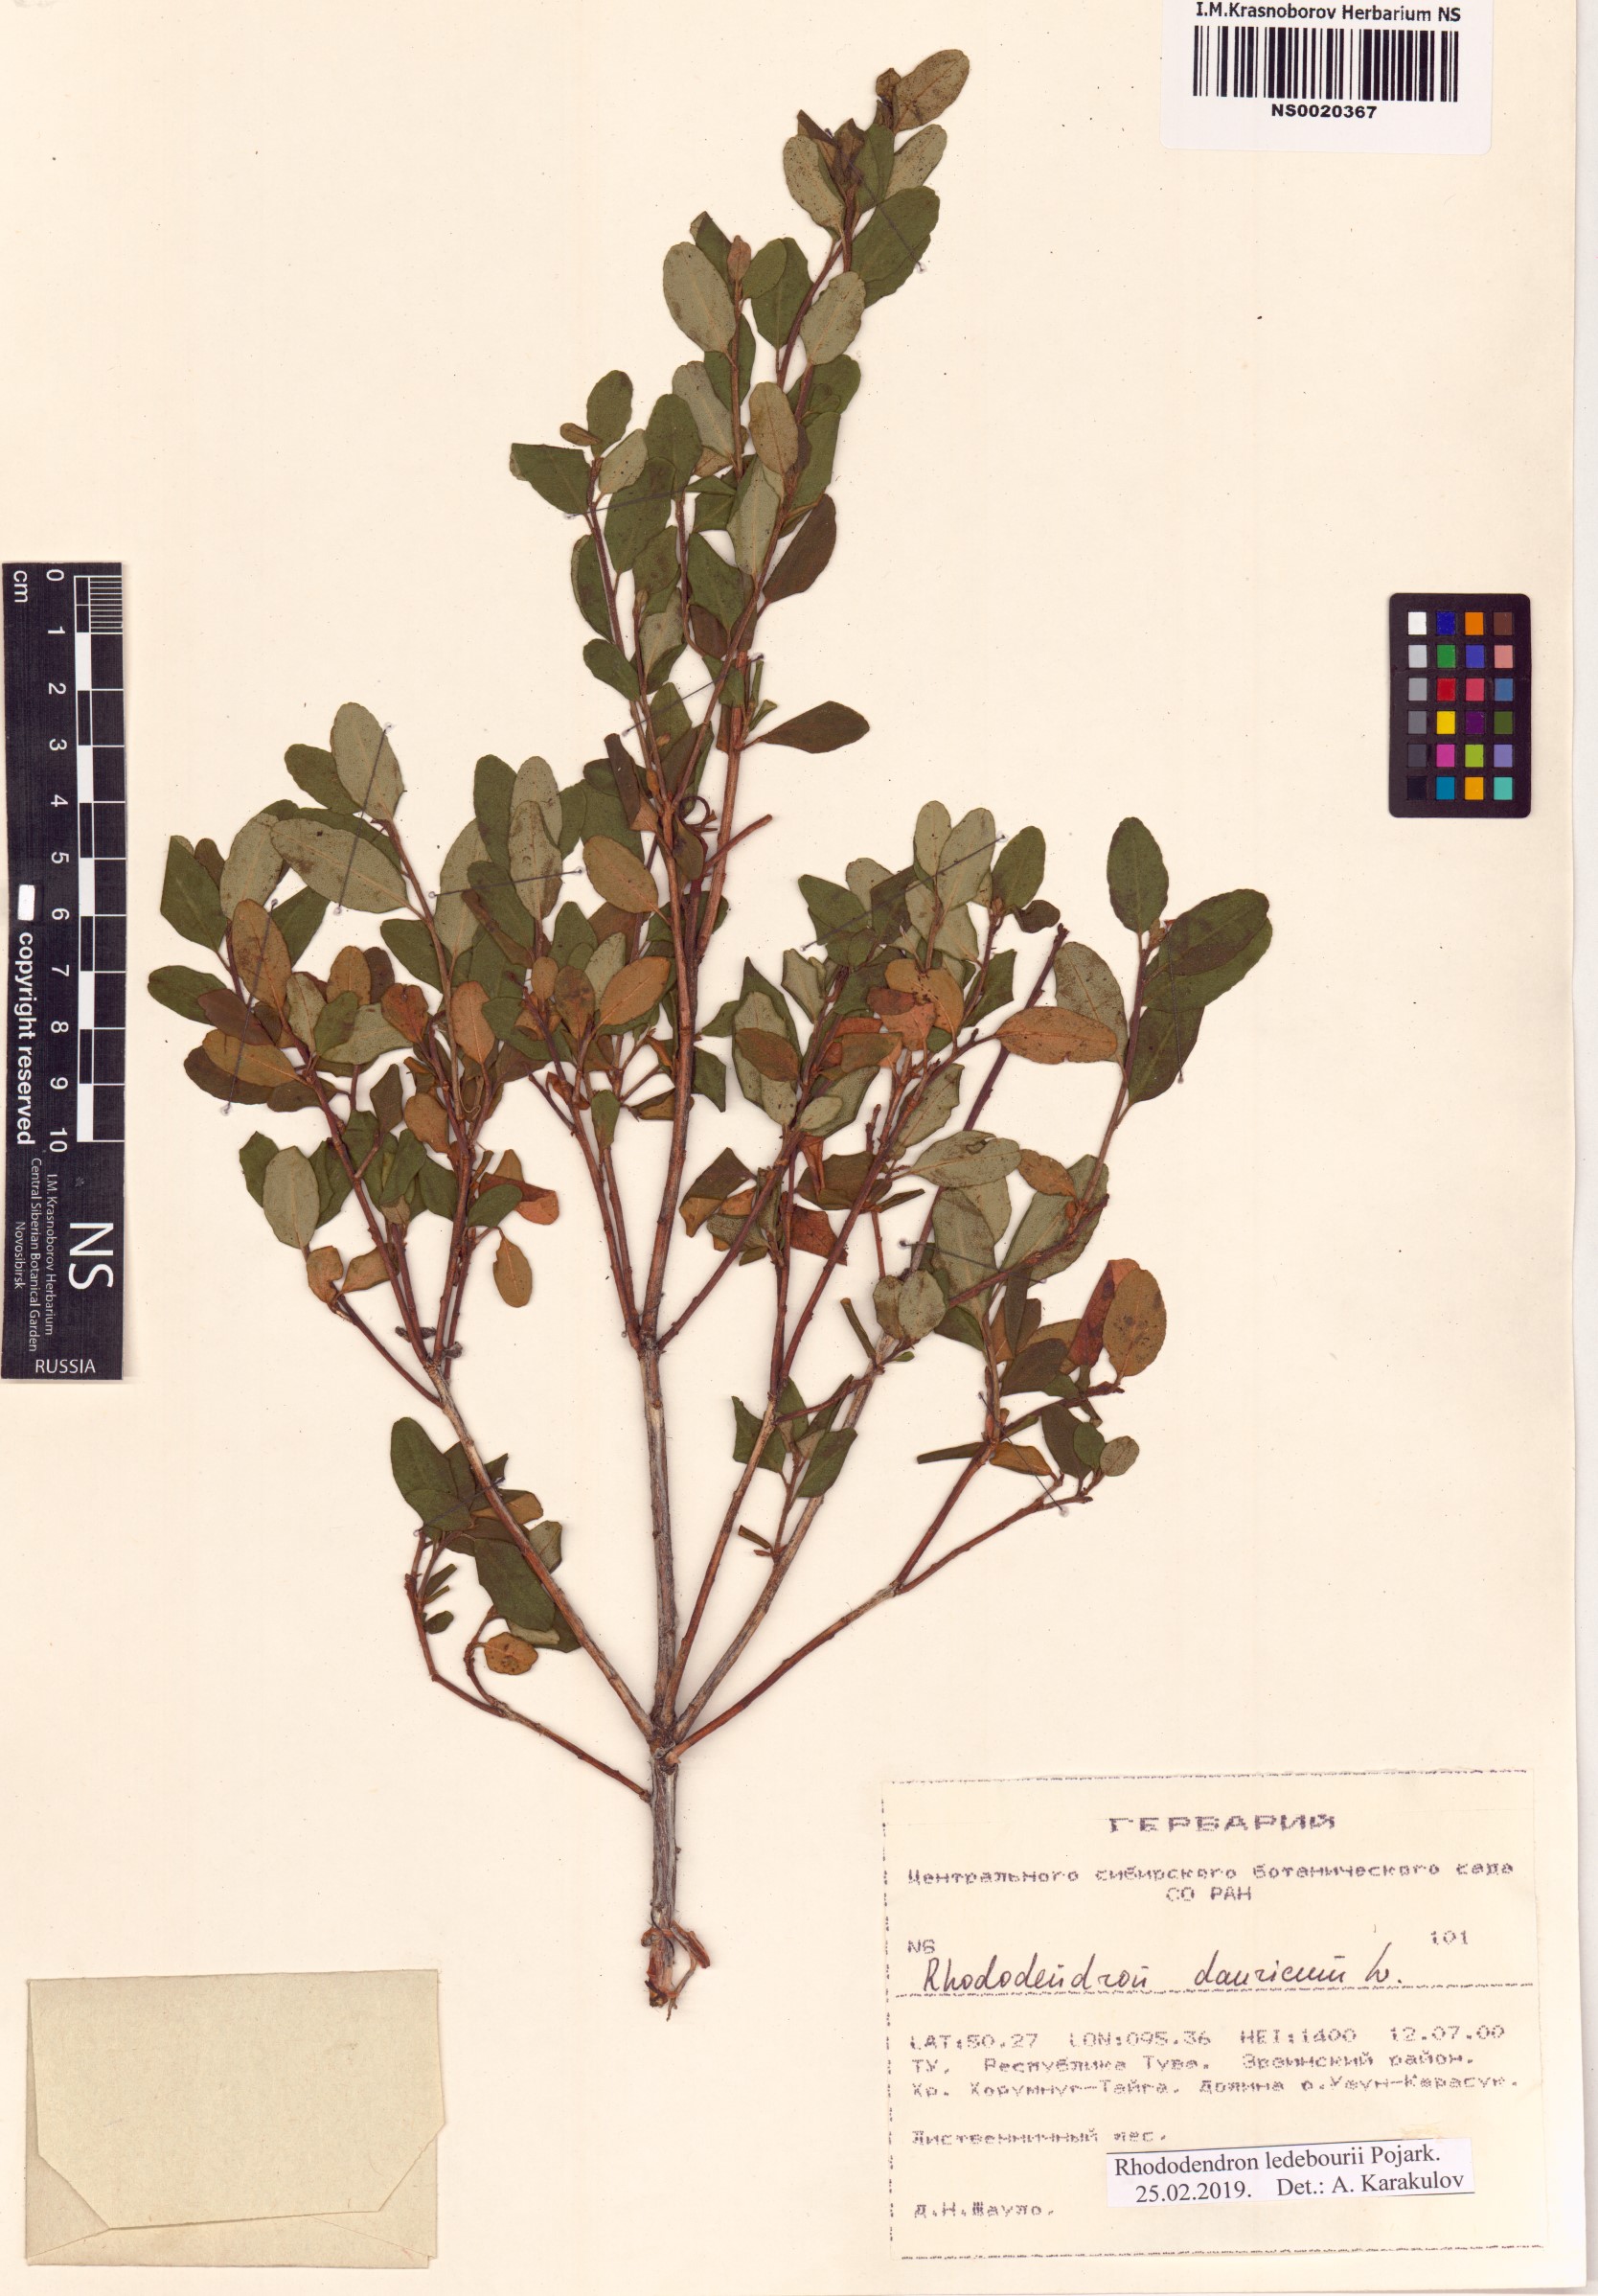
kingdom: Plantae
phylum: Tracheophyta
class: Magnoliopsida
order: Ericales
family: Ericaceae
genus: Rhododendron
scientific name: Rhododendron dauricum
